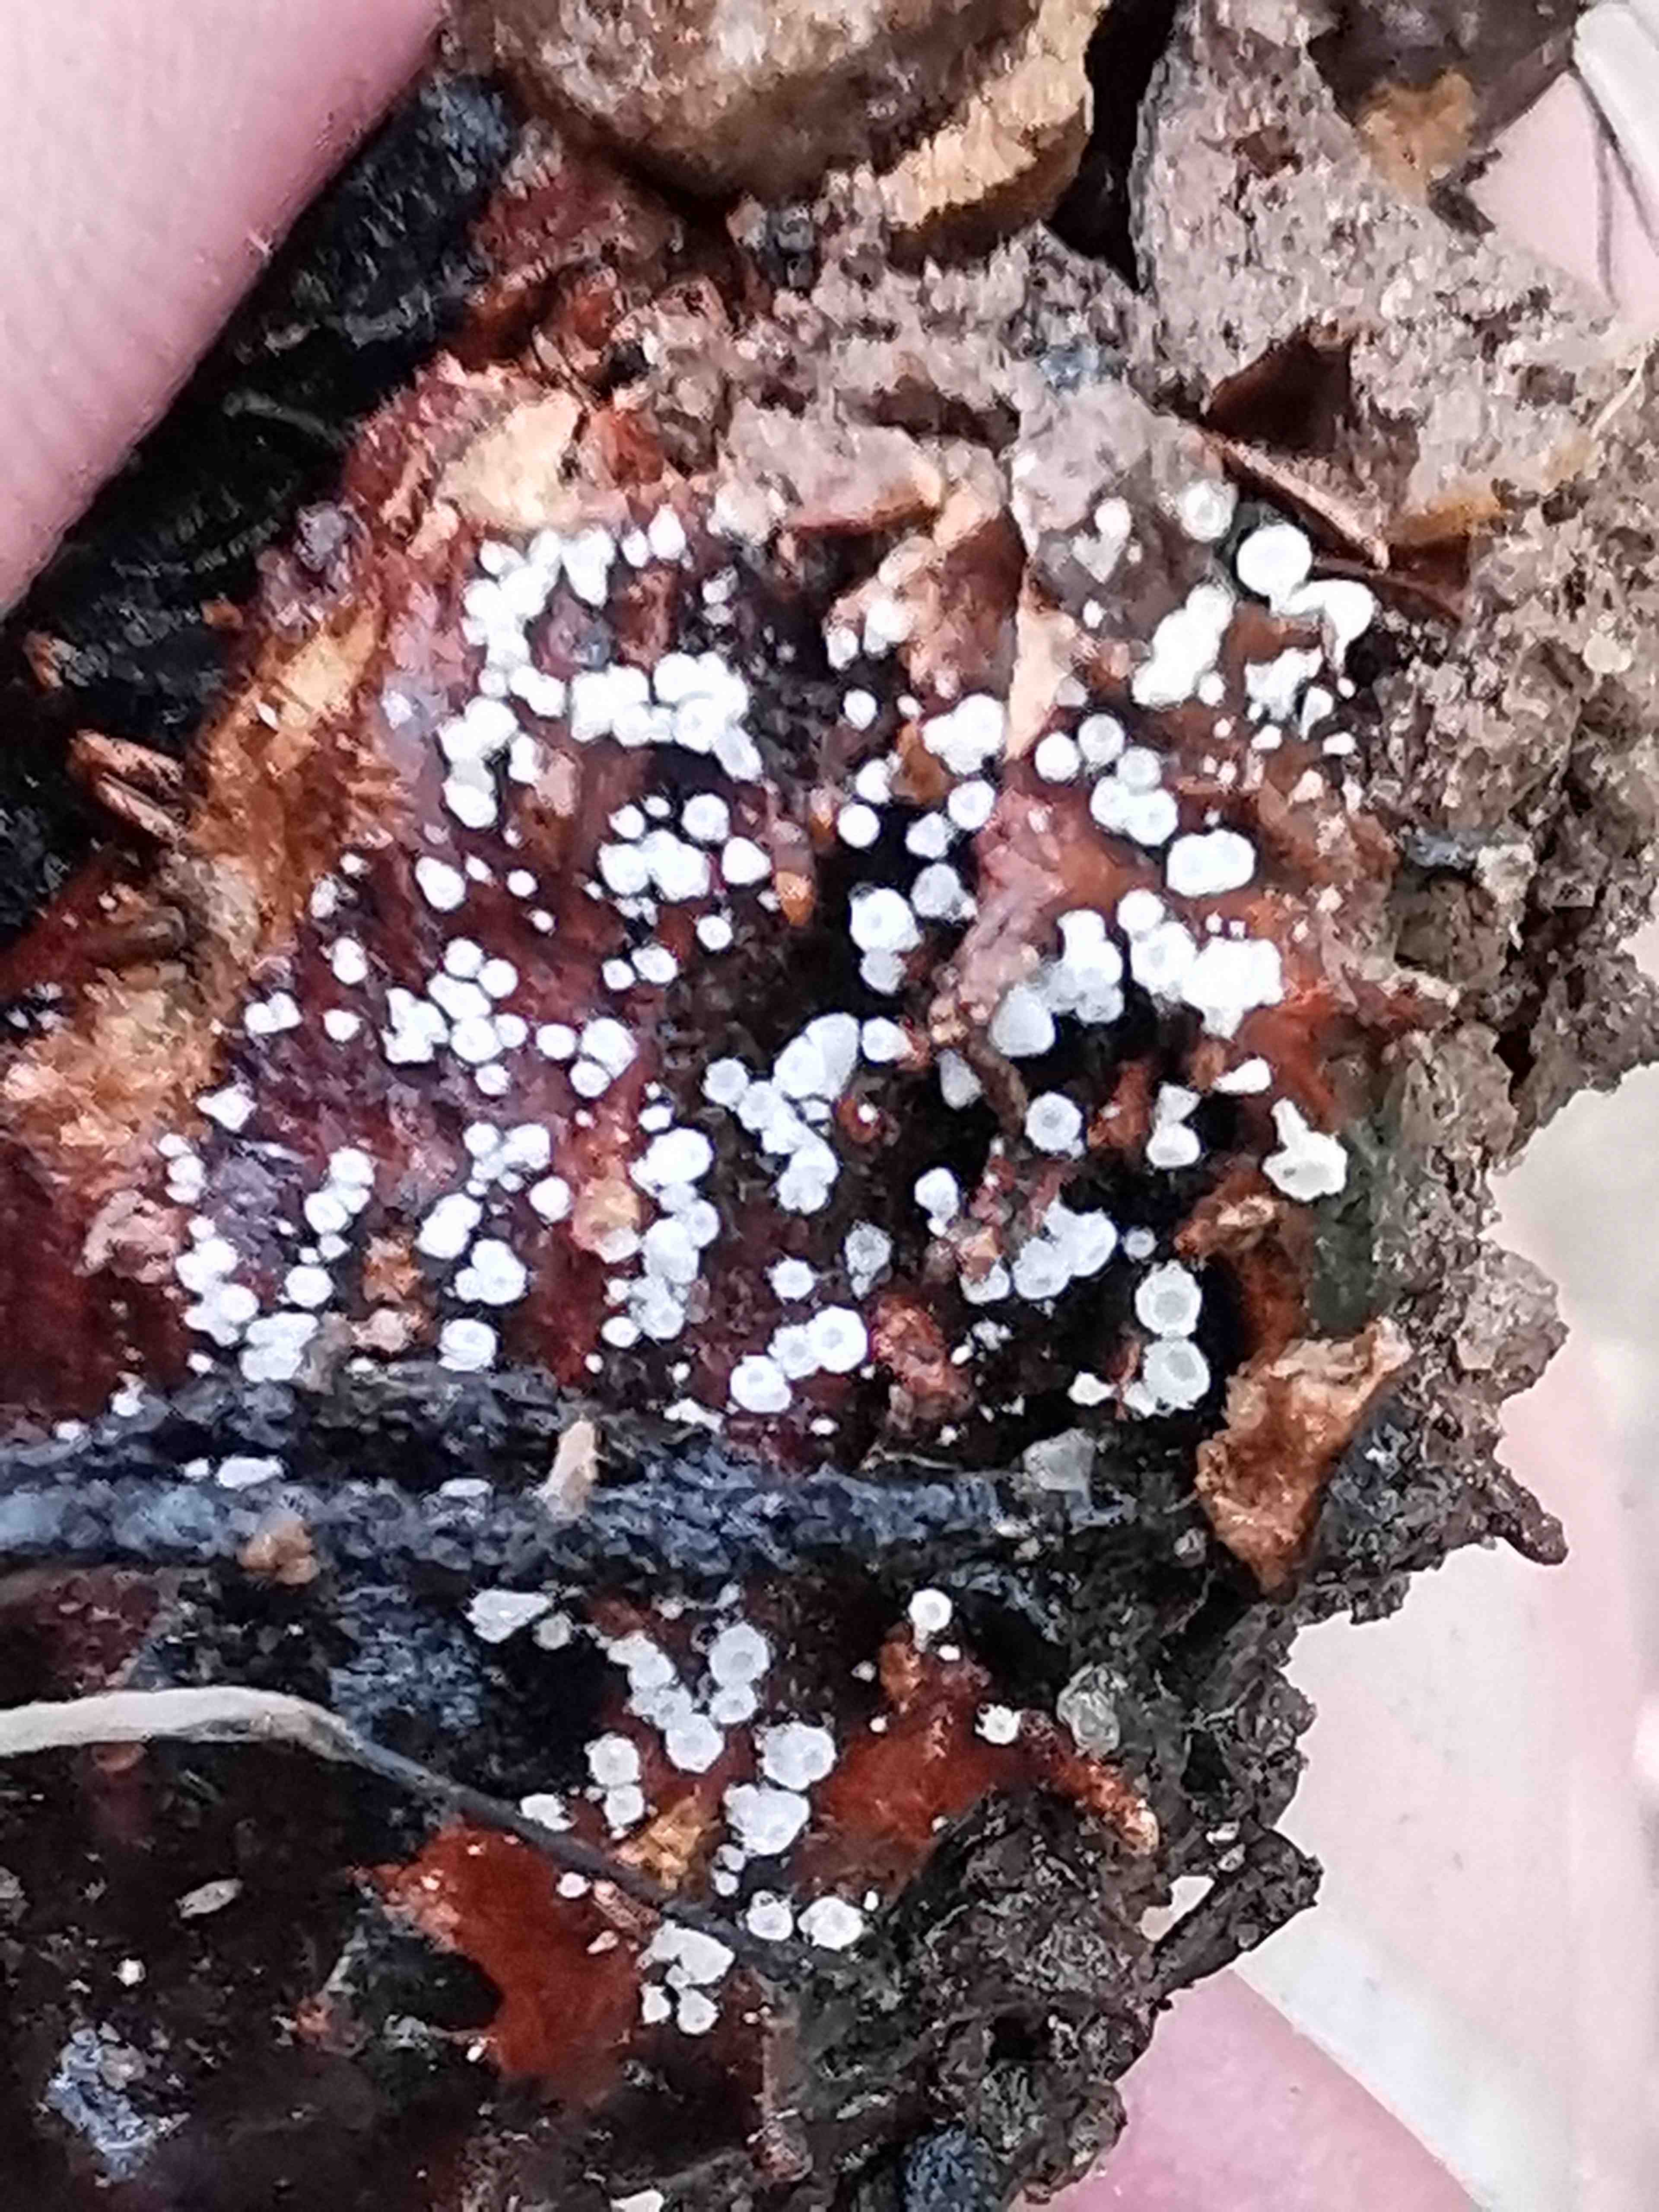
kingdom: Fungi
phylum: Ascomycota
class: Leotiomycetes
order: Helotiales
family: Lachnaceae
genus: Lachnum
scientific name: Lachnum virgineum
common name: jomfru-frynseskive
